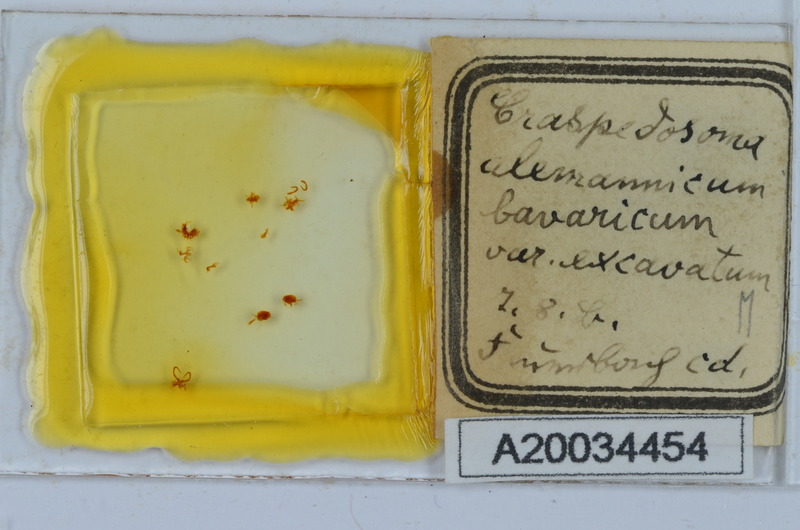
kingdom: Animalia
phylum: Arthropoda
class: Diplopoda
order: Chordeumatida
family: Craspedosomatidae
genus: Craspedosoma
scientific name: Craspedosoma rawlinsii
